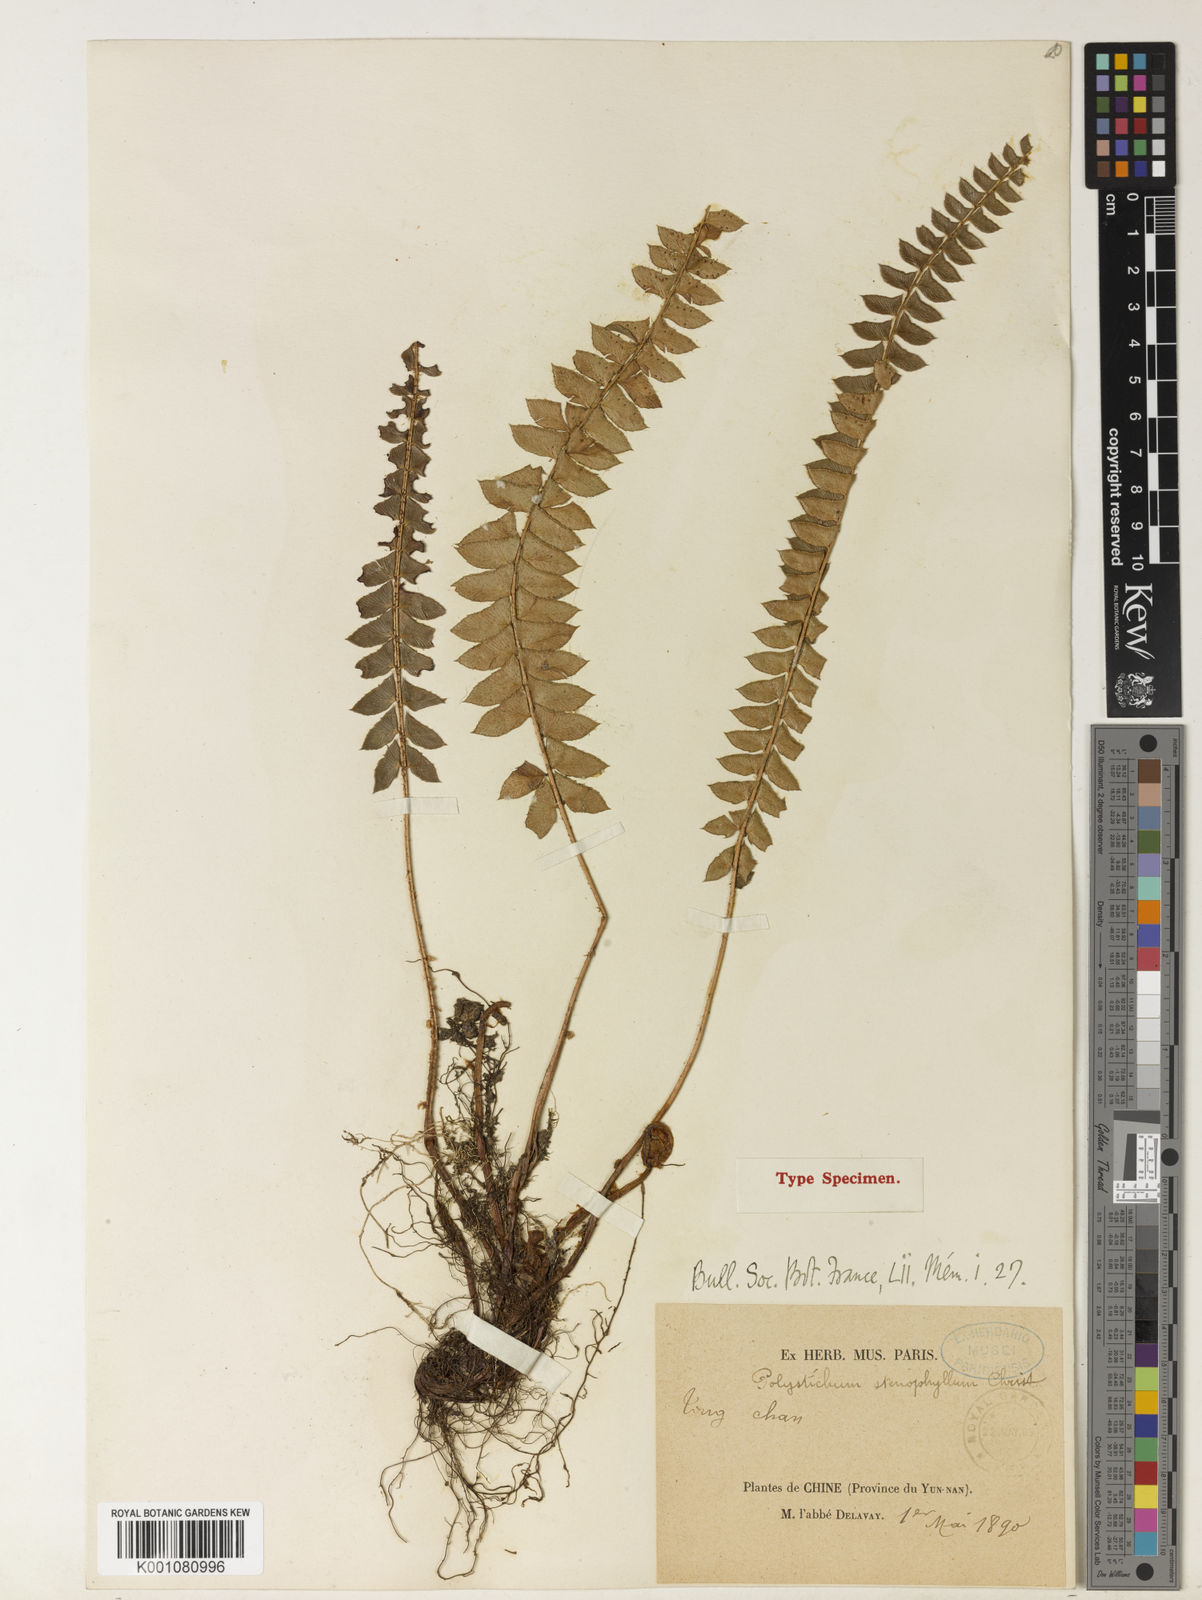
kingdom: Plantae
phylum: Tracheophyta
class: Polypodiopsida
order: Polypodiales
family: Dryopteridaceae
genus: Polystichum
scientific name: Polystichum levingei
